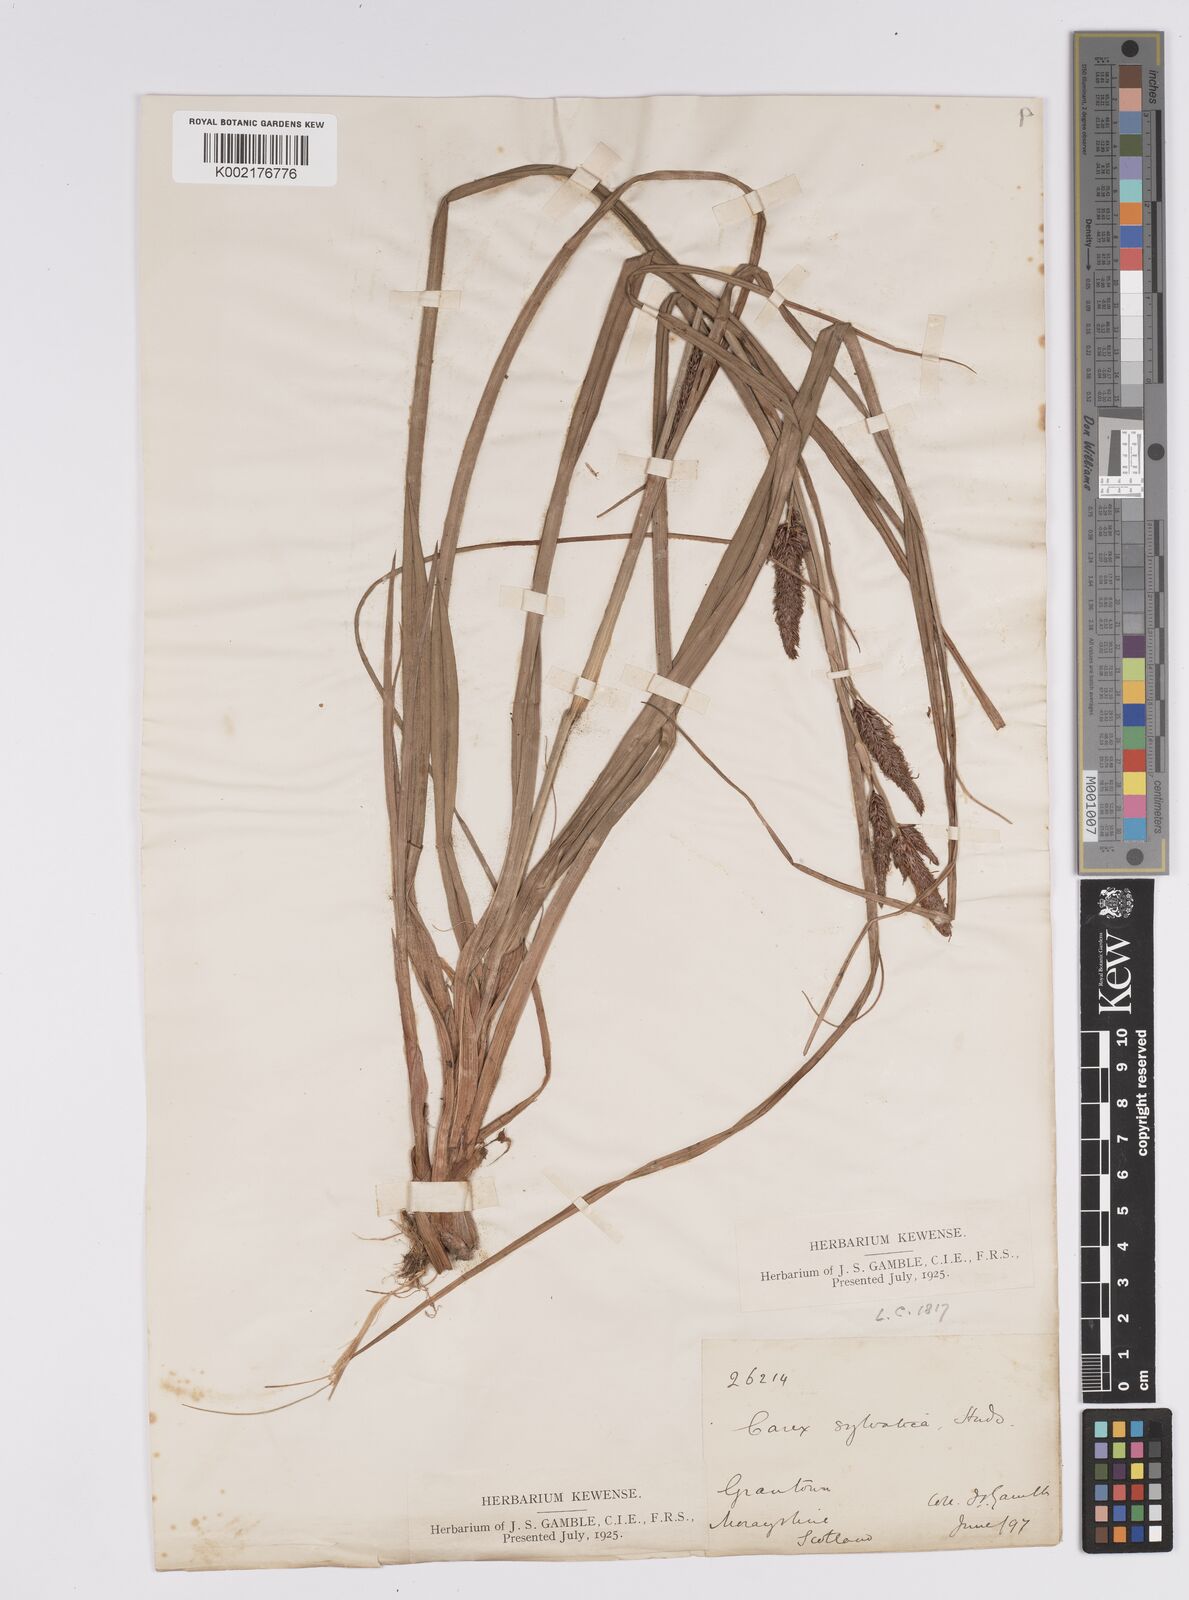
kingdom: Plantae
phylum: Tracheophyta
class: Liliopsida
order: Poales
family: Cyperaceae
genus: Carex
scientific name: Carex binervis
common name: Green-ribbed sedge
